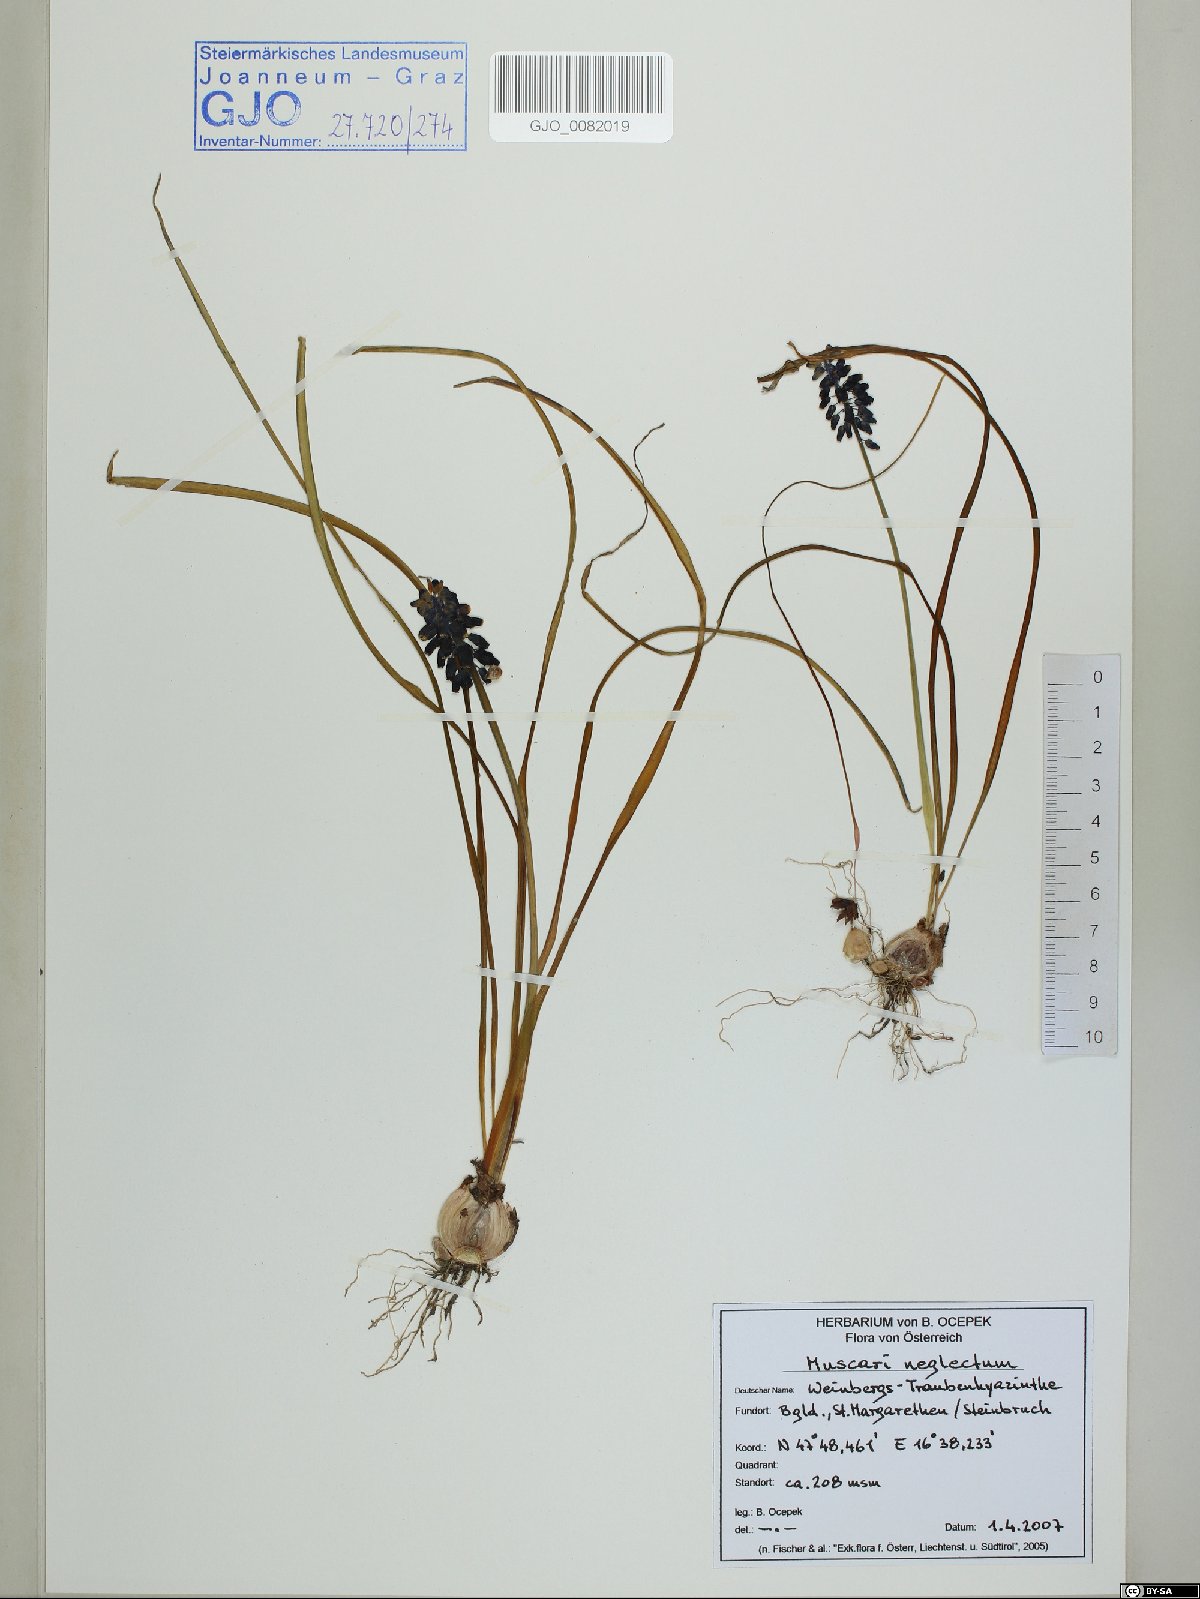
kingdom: Plantae
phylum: Tracheophyta
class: Liliopsida
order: Asparagales
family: Asparagaceae
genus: Muscari
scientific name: Muscari neglectum
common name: Grape-hyacinth
